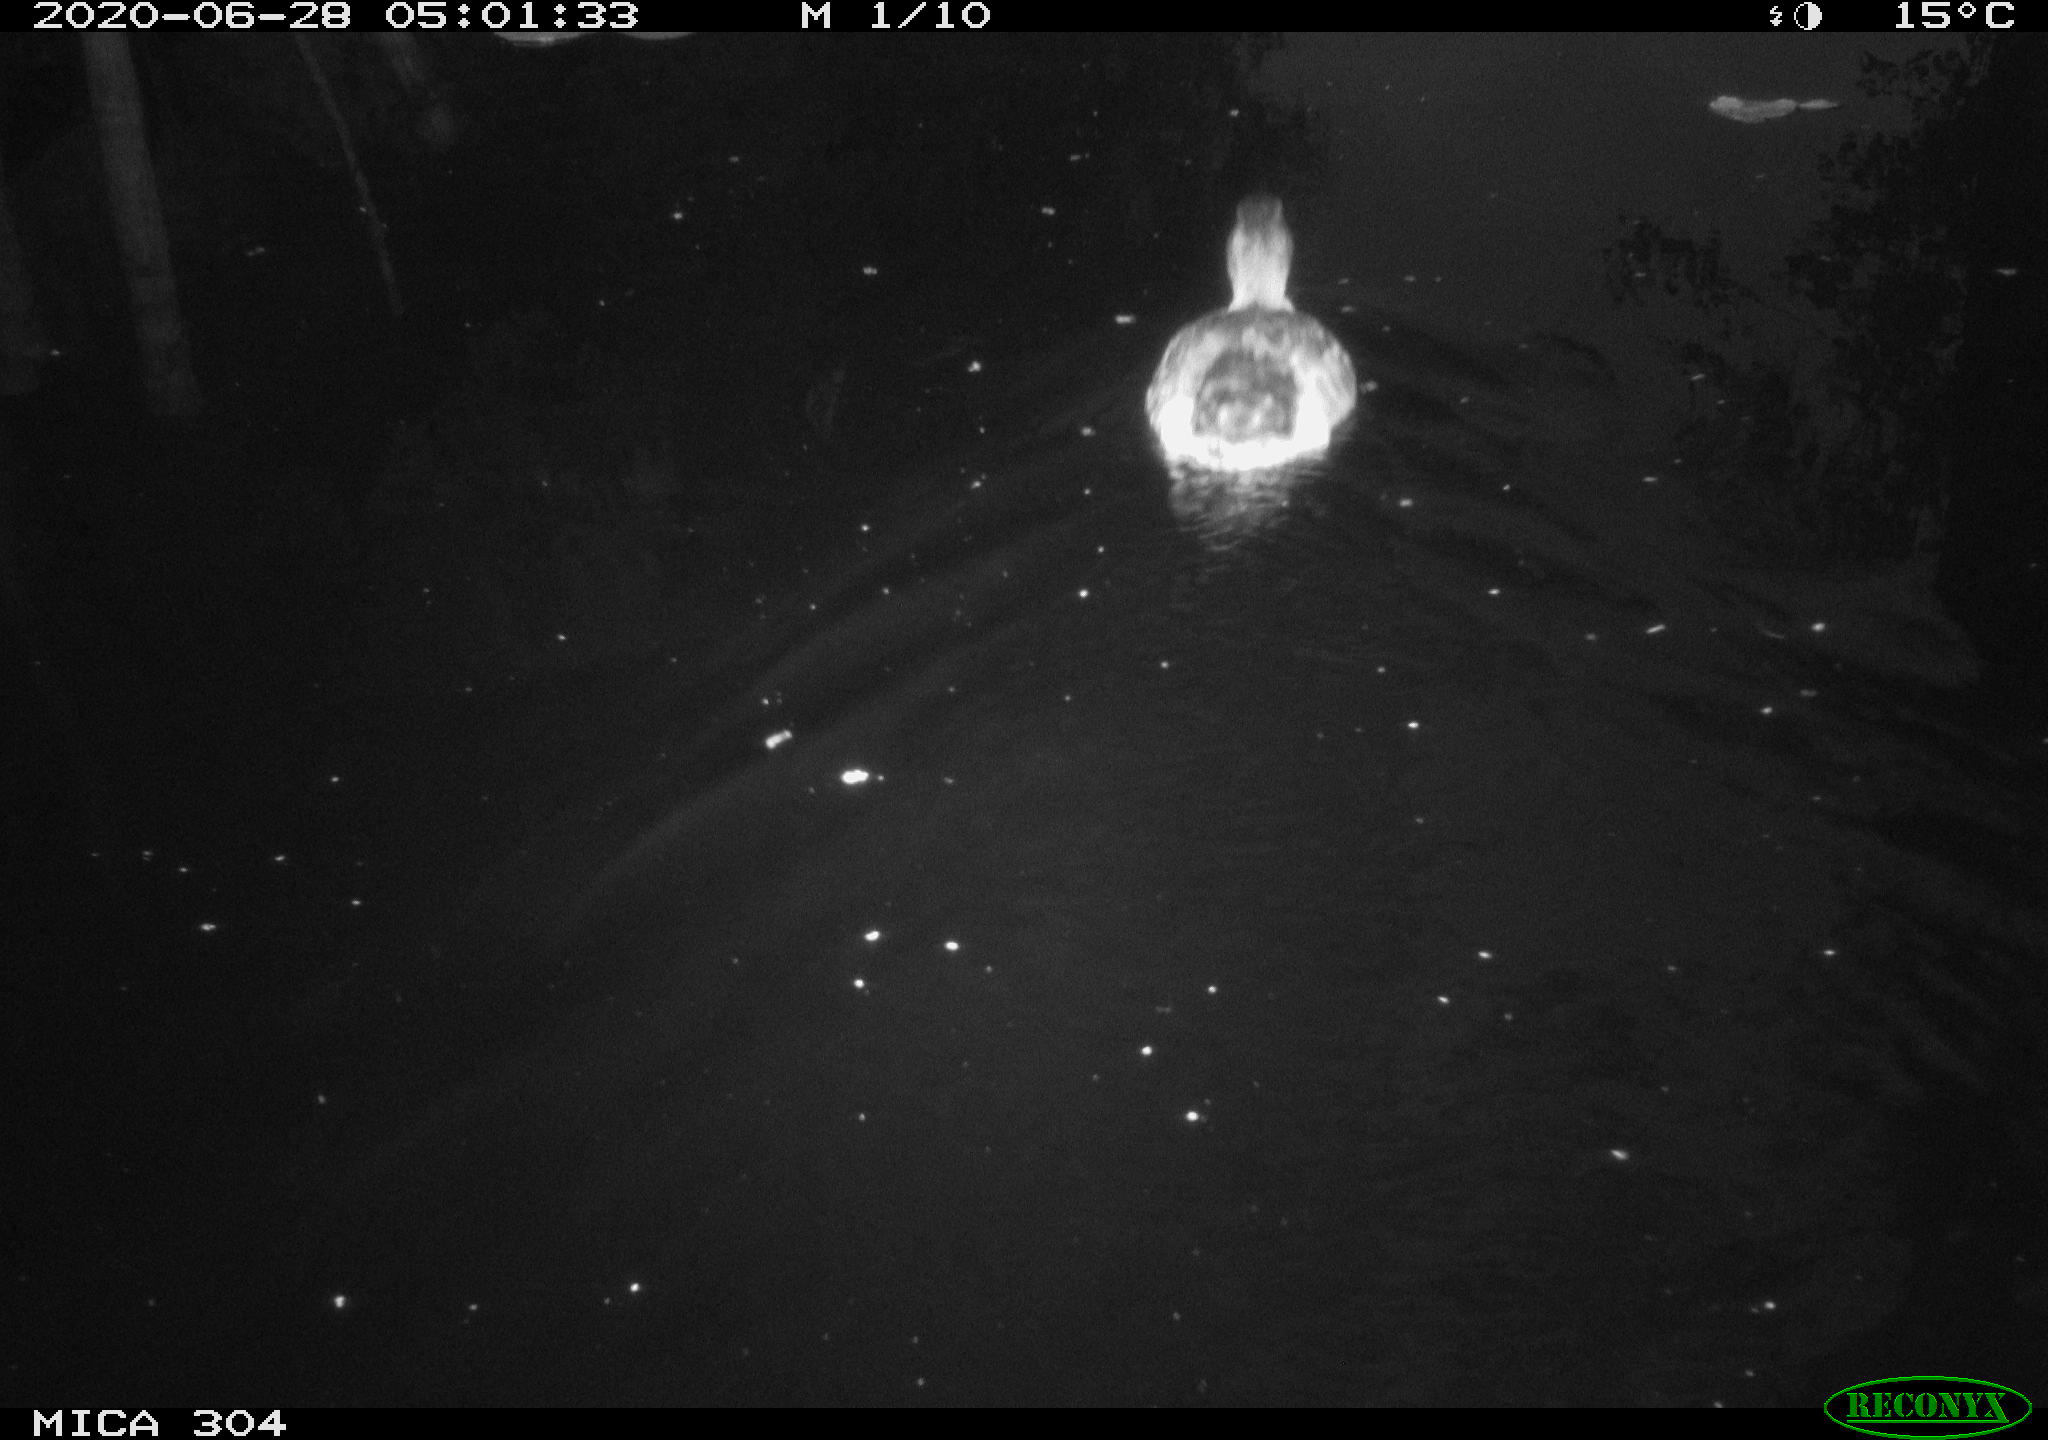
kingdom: Animalia
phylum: Chordata
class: Aves
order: Anseriformes
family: Anatidae
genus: Anas
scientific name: Anas platyrhynchos
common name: Mallard
